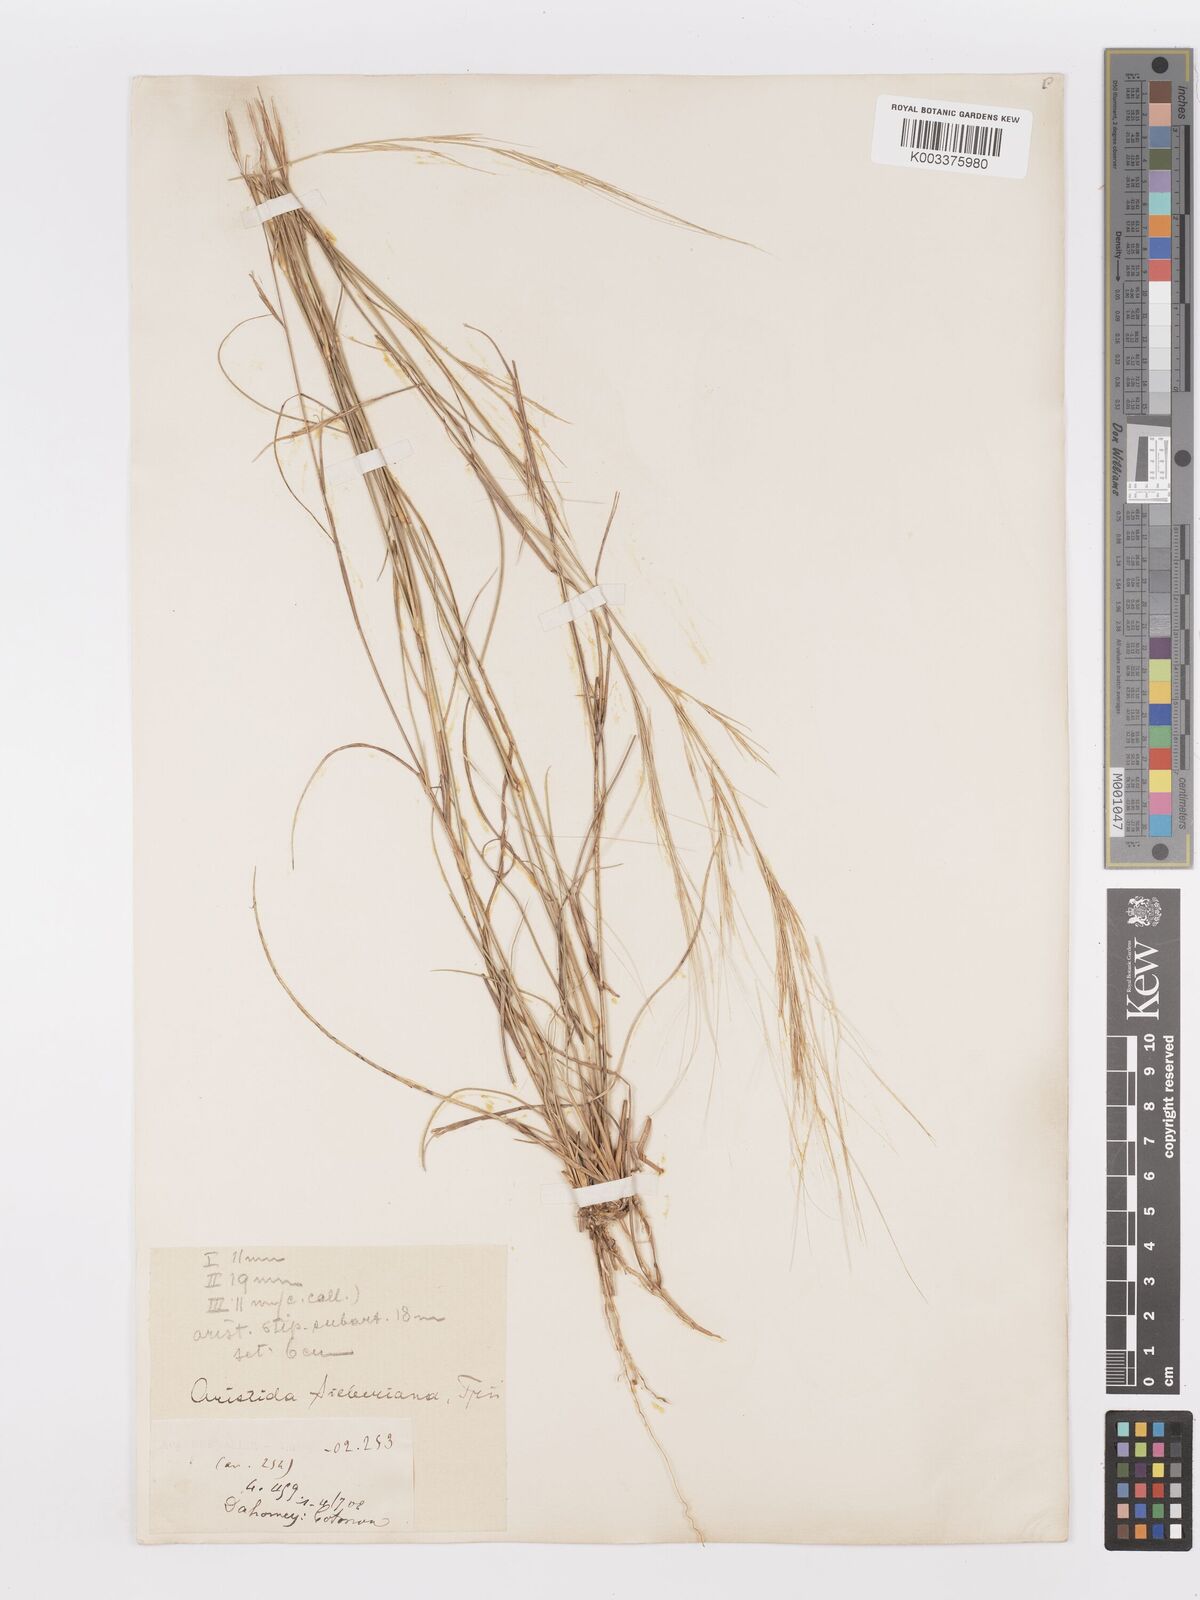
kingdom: Plantae
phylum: Tracheophyta
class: Liliopsida
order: Poales
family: Poaceae
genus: Aristida
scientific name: Aristida sieberiana
